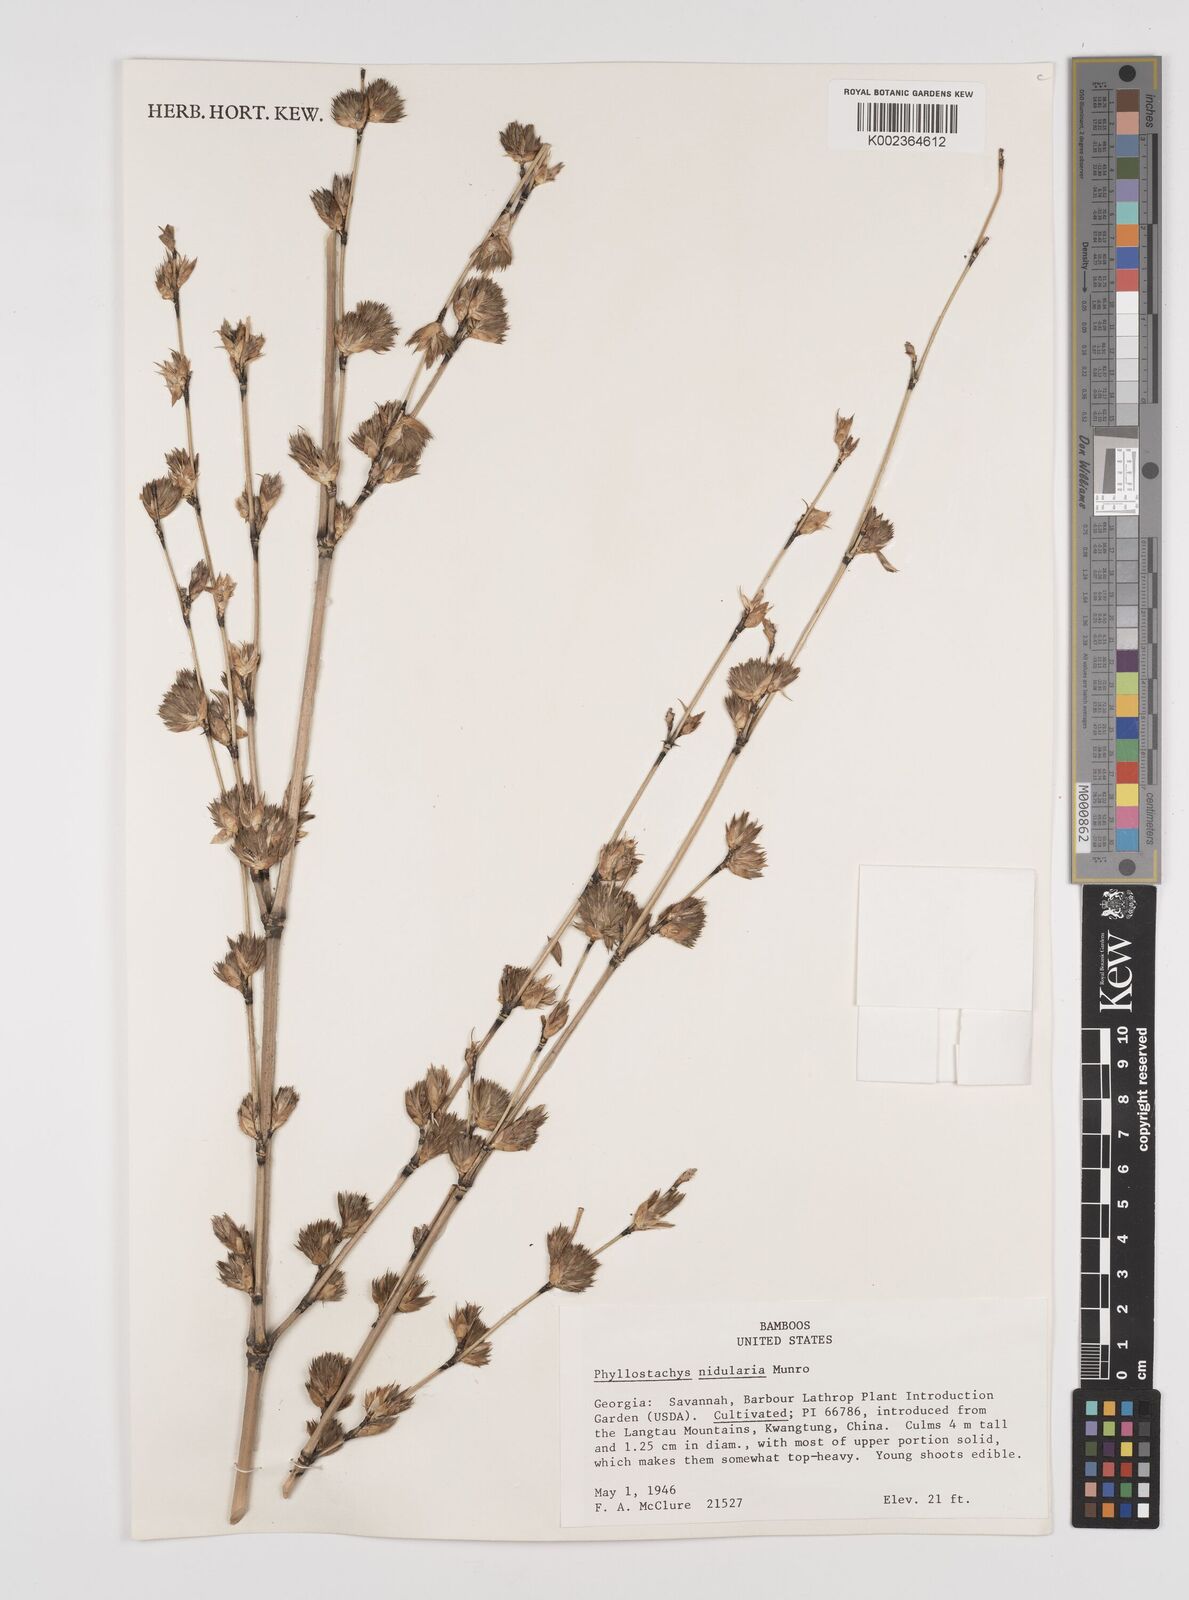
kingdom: Plantae
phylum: Tracheophyta
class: Liliopsida
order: Poales
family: Poaceae
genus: Phyllostachys
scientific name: Phyllostachys nidularia
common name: Broom bamboo
